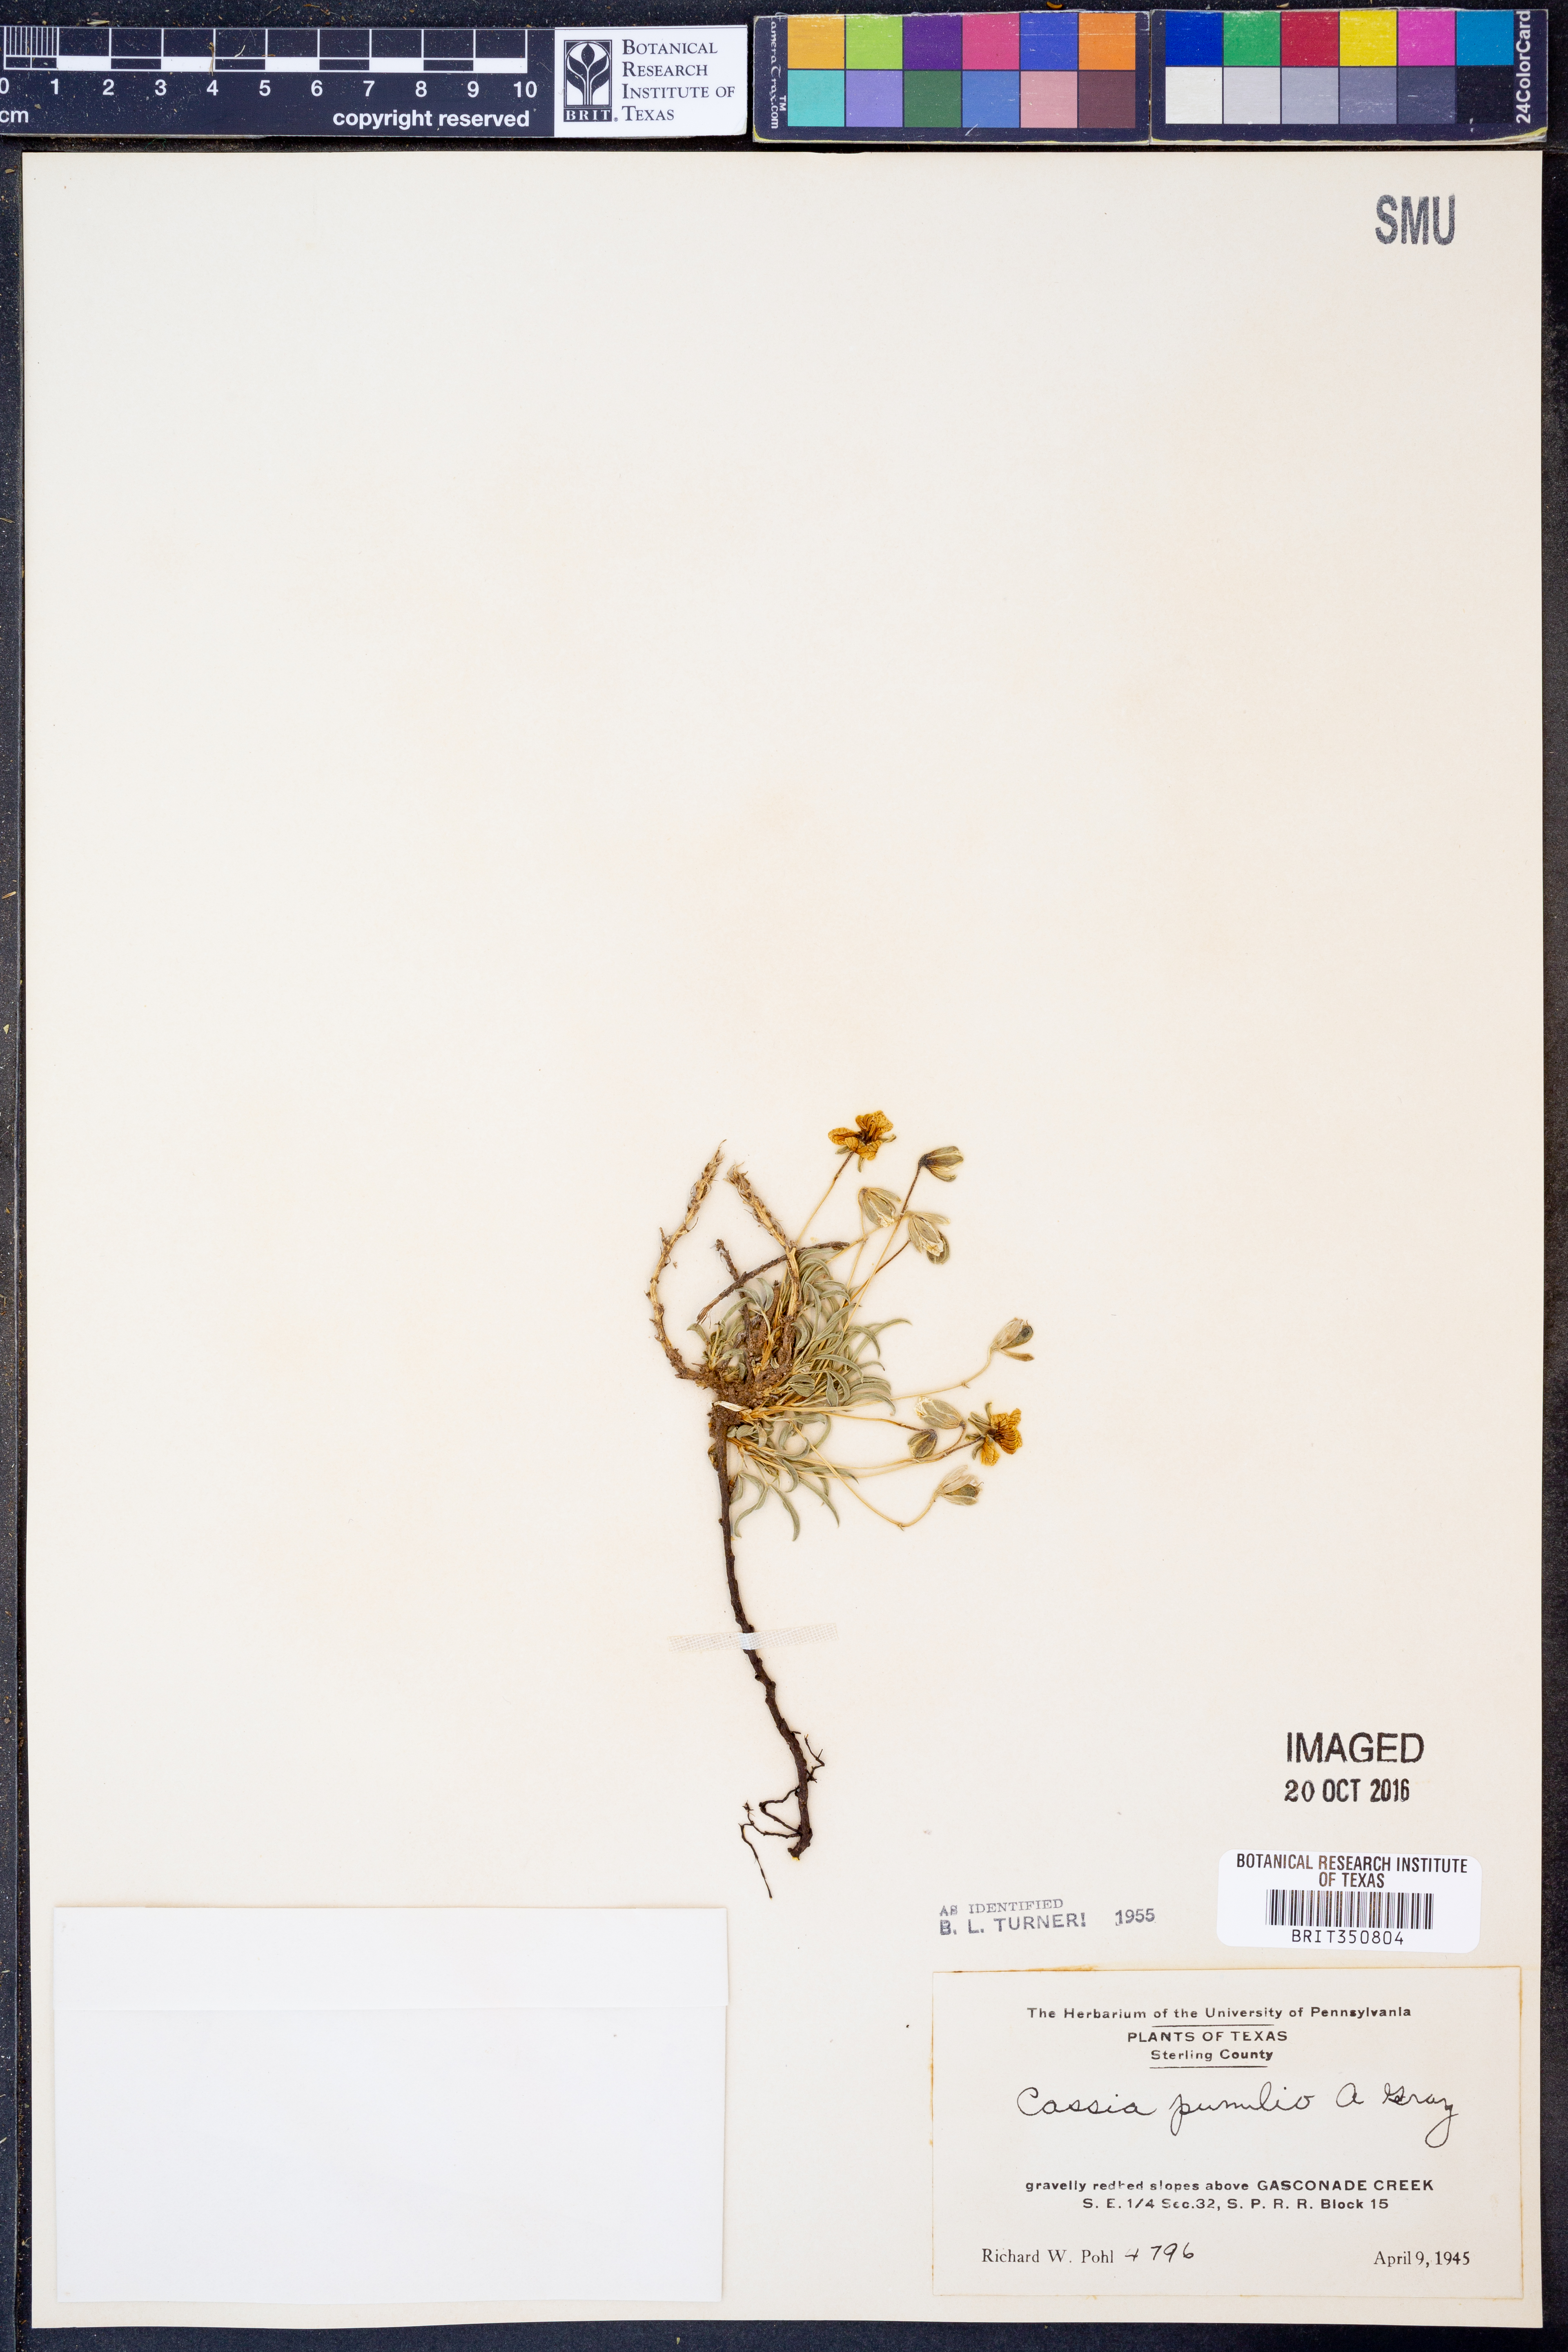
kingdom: Plantae
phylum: Tracheophyta
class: Magnoliopsida
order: Fabales
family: Fabaceae
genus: Senna
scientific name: Senna pumilio
